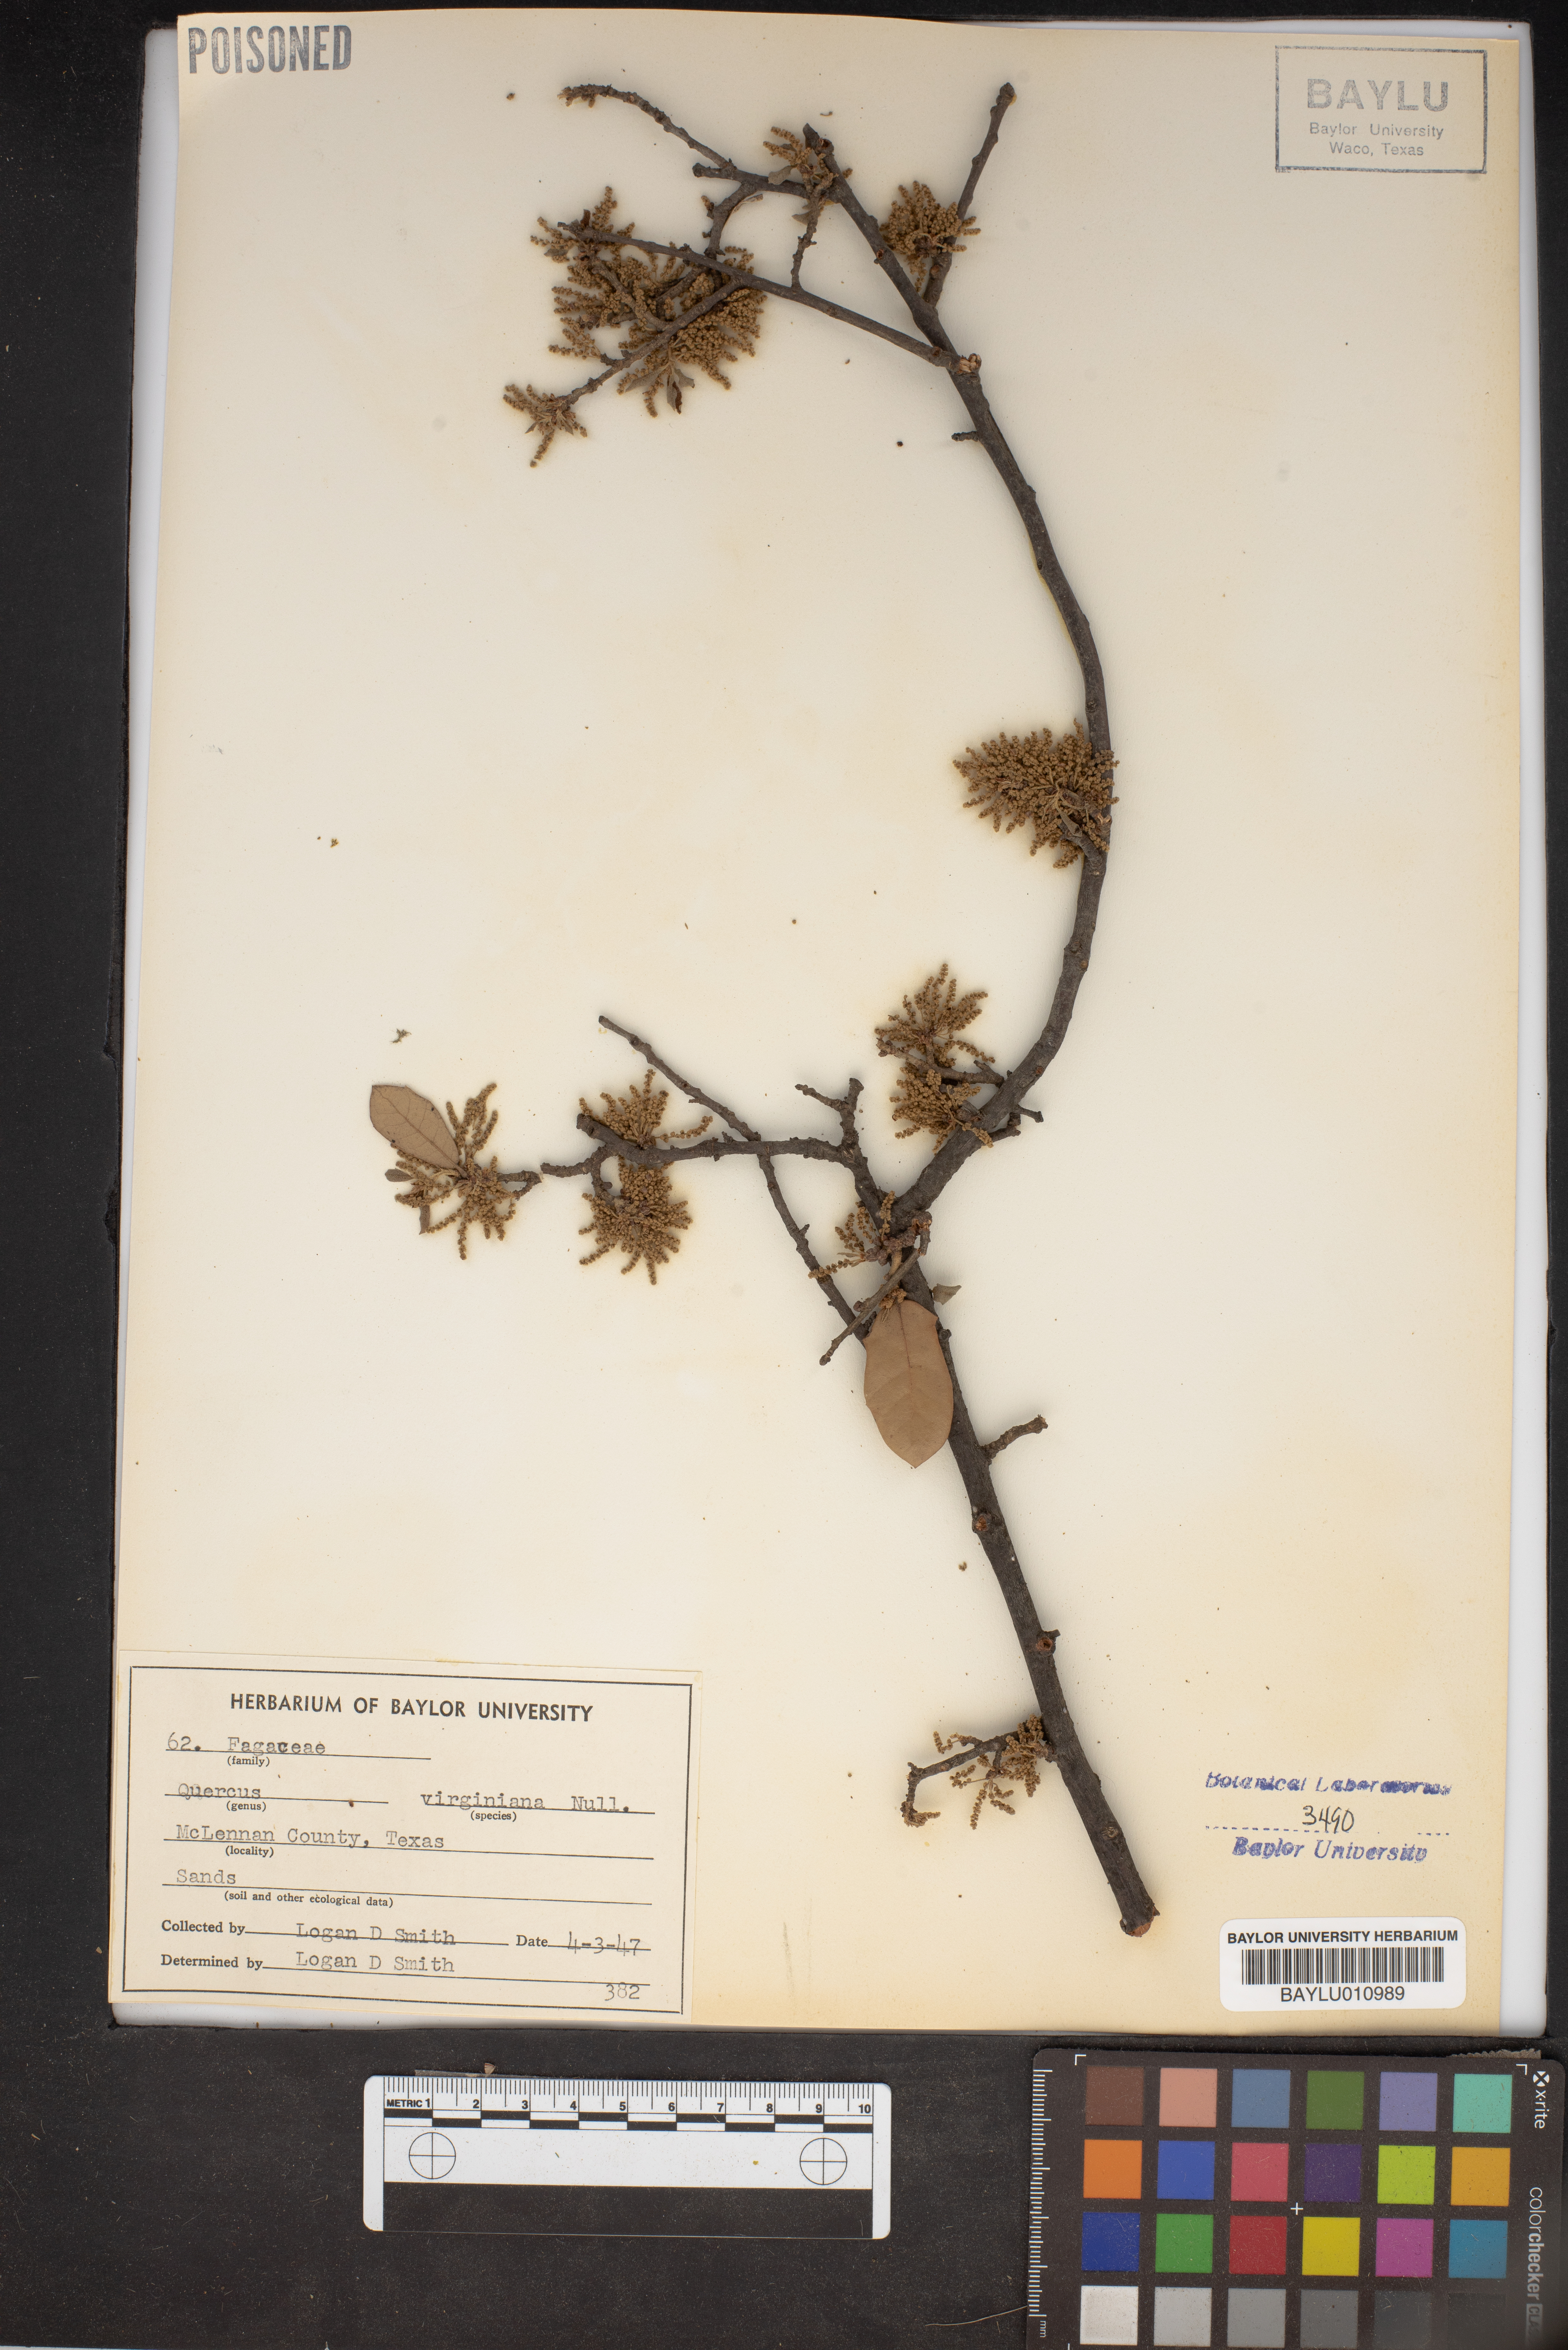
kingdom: Plantae
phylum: Tracheophyta
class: Magnoliopsida
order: Fagales
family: Fagaceae
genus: Quercus
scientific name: Quercus virginiana
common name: Southern live oak
